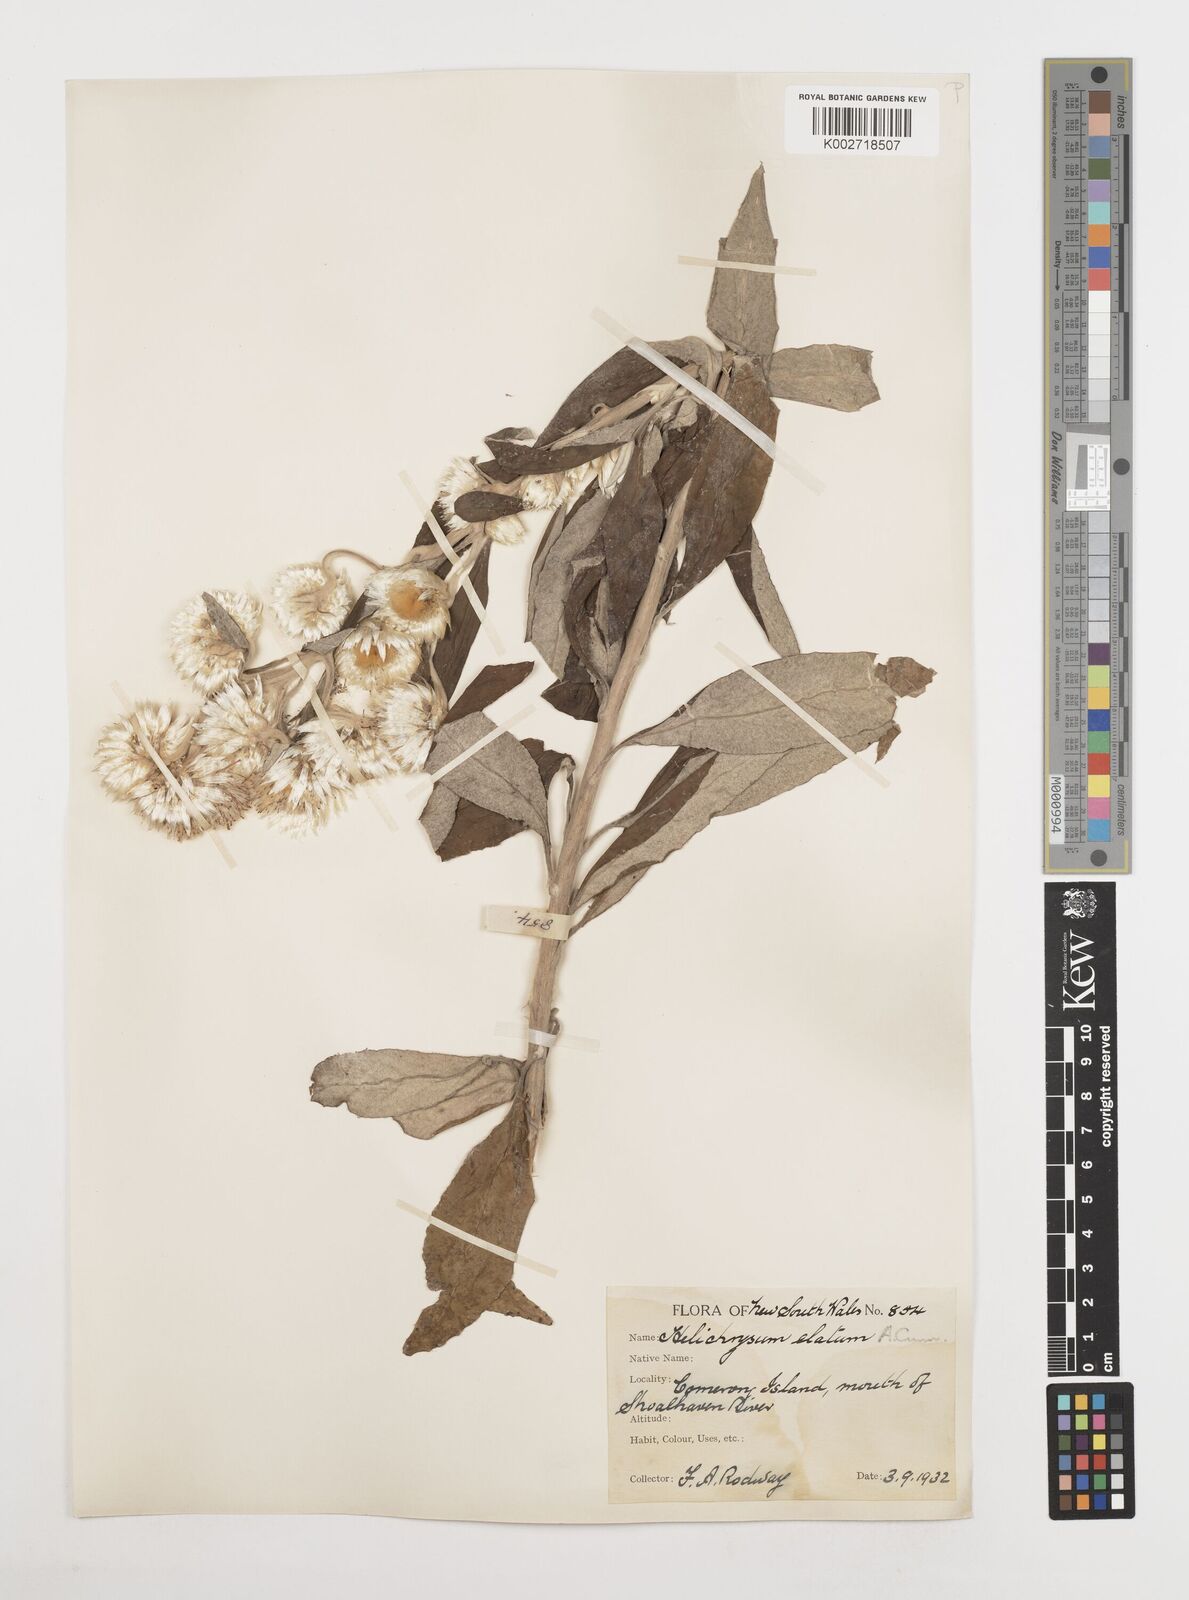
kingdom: Plantae
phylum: Tracheophyta
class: Magnoliopsida
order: Asterales
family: Asteraceae
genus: Leucozoma
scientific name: Leucozoma elatum
